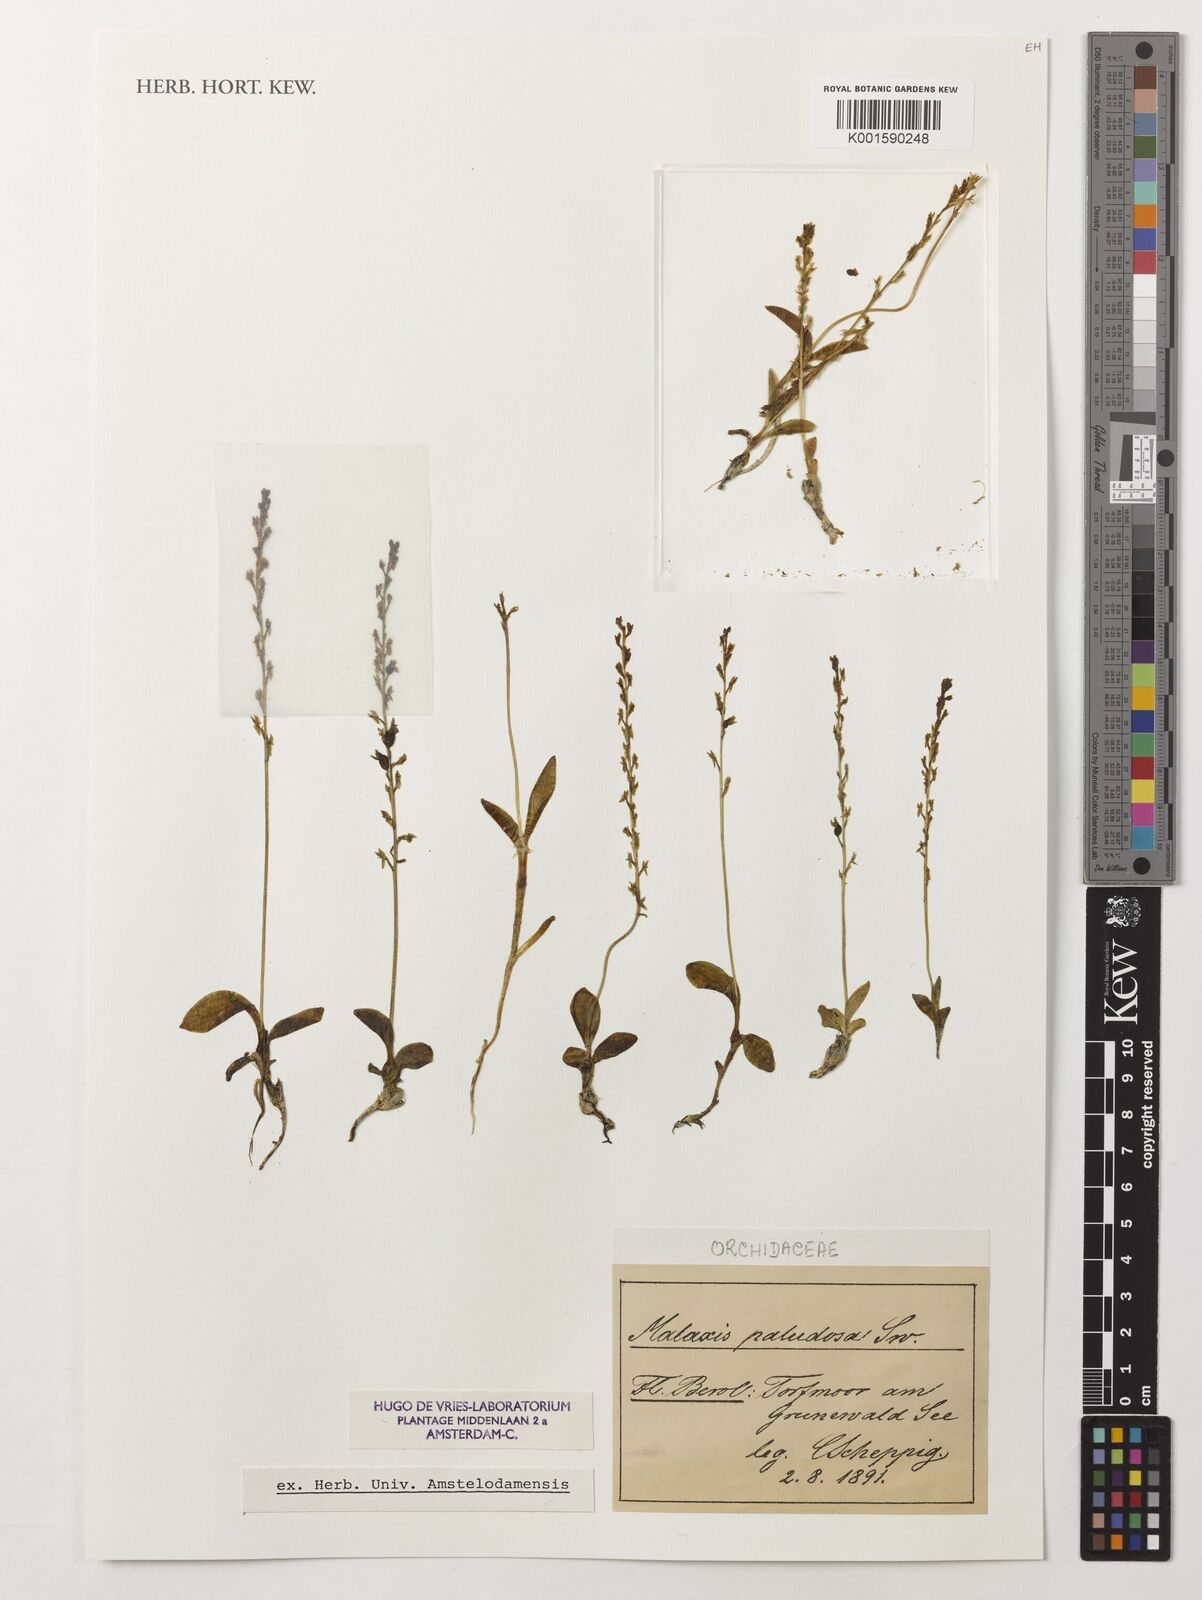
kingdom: Plantae
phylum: Tracheophyta
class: Liliopsida
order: Asparagales
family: Orchidaceae
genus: Hammarbya
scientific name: Hammarbya paludosa
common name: Bog orchid
